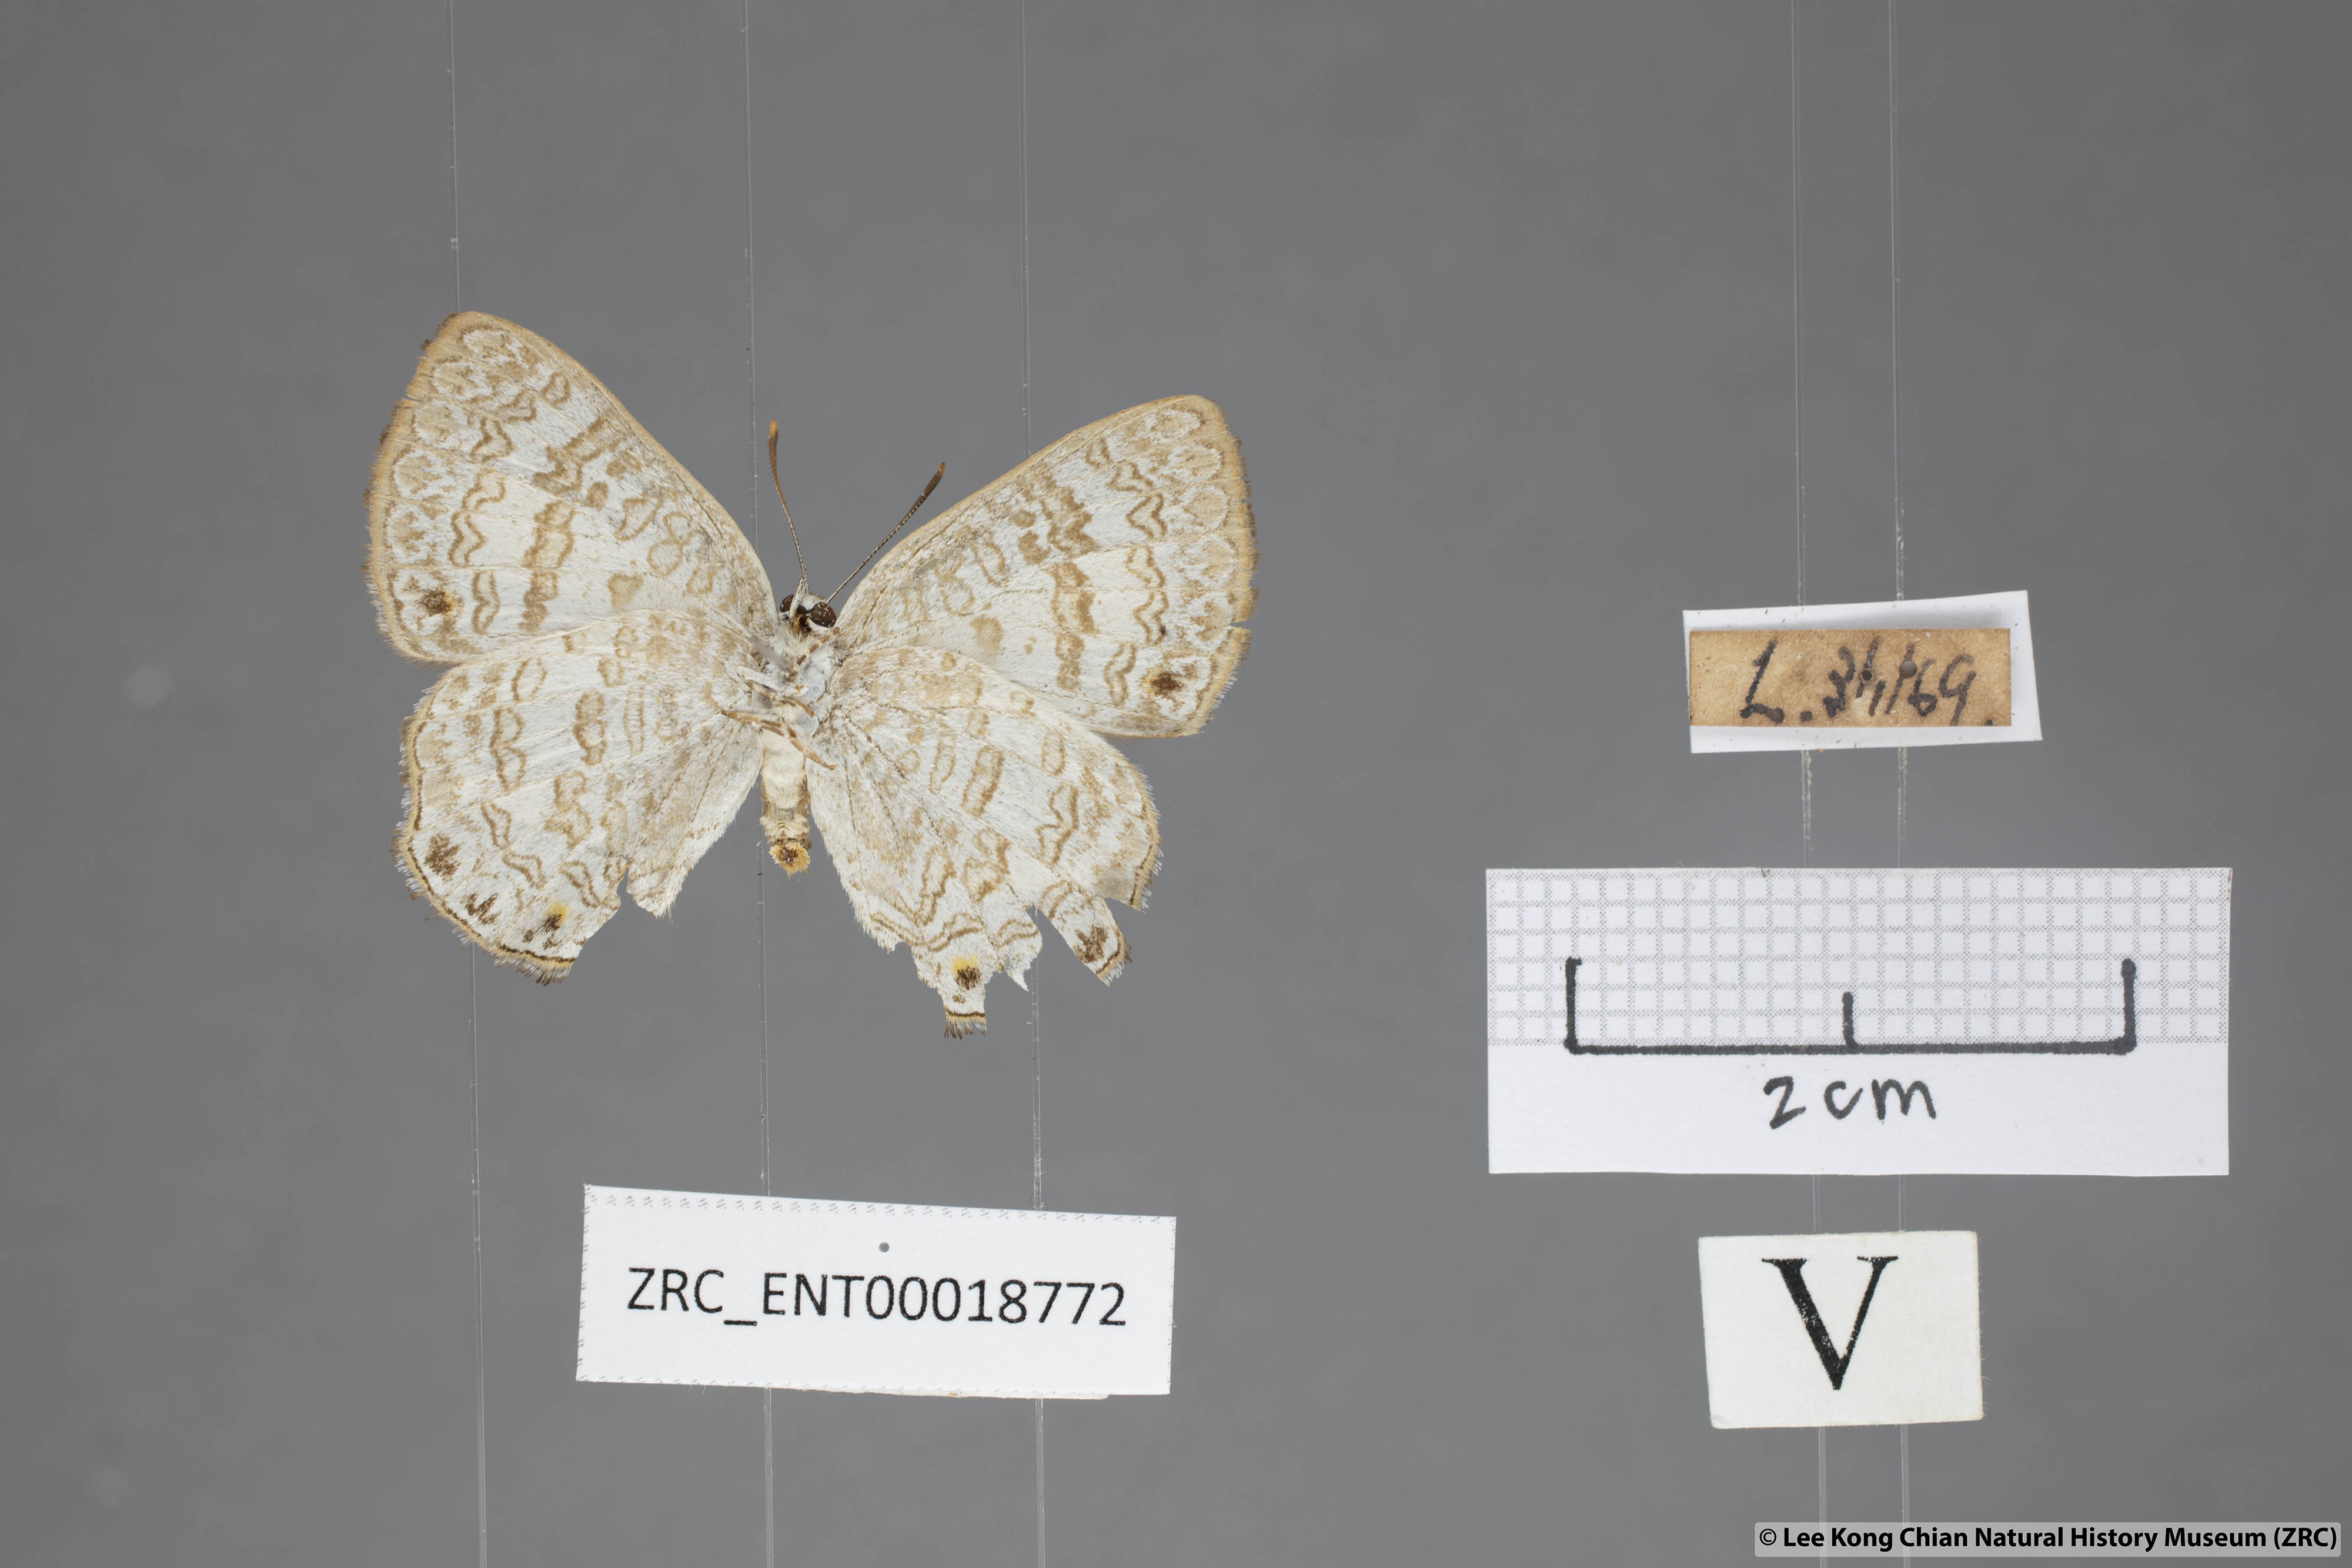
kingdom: Animalia
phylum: Arthropoda
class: Insecta
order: Lepidoptera
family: Lycaenidae
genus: Poritia
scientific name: Poritia erycinoides
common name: Blue gem
